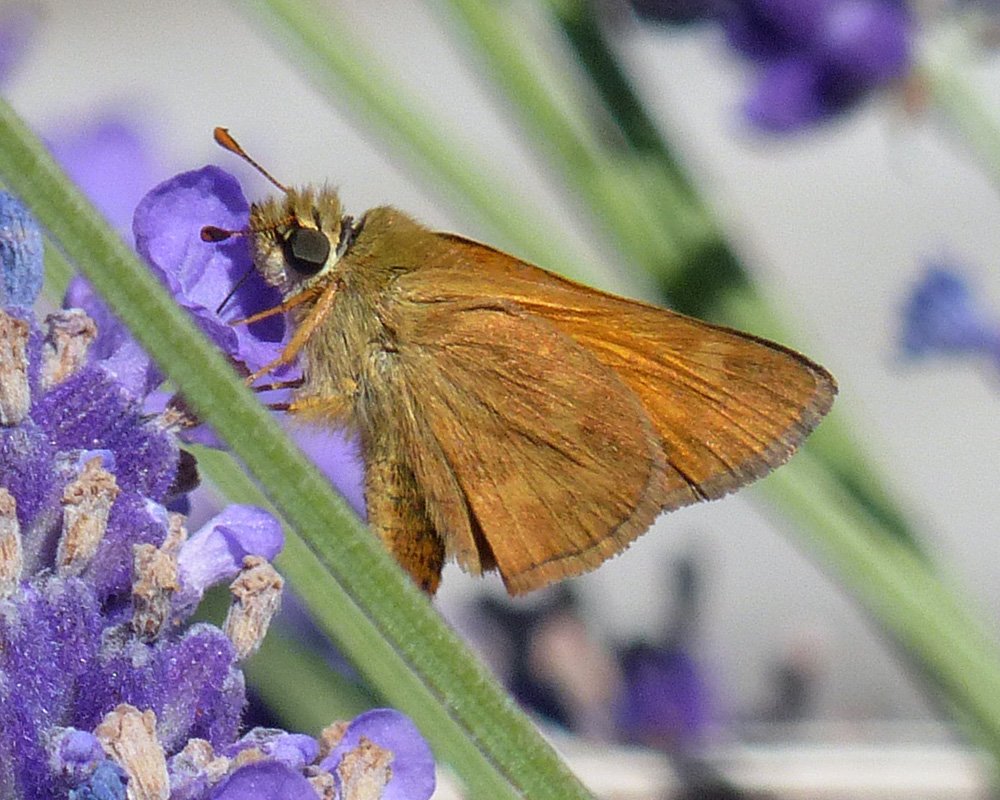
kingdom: Animalia
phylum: Arthropoda
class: Insecta
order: Lepidoptera
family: Hesperiidae
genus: Ochlodes
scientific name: Ochlodes sylvanoides
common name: Woodland Skipper
